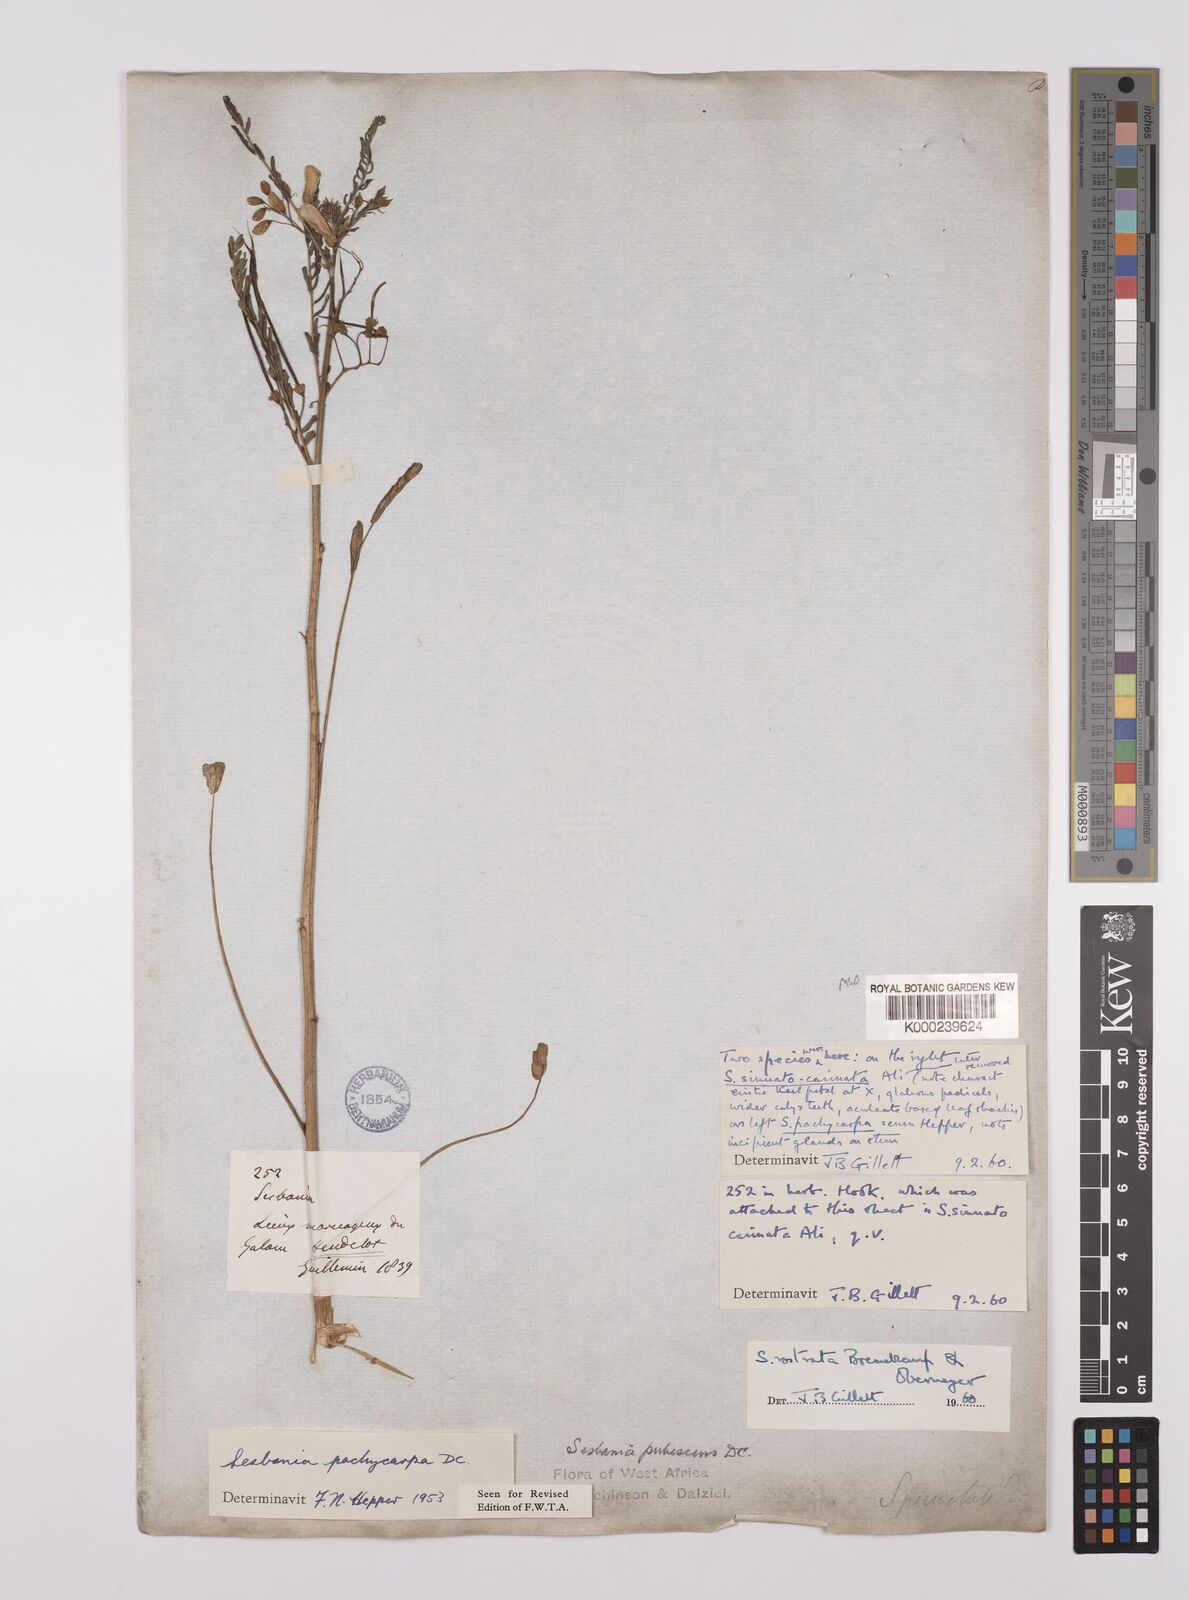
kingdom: Plantae
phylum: Tracheophyta
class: Magnoliopsida
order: Fabales
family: Fabaceae
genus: Sesbania
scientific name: Sesbania rostrata
